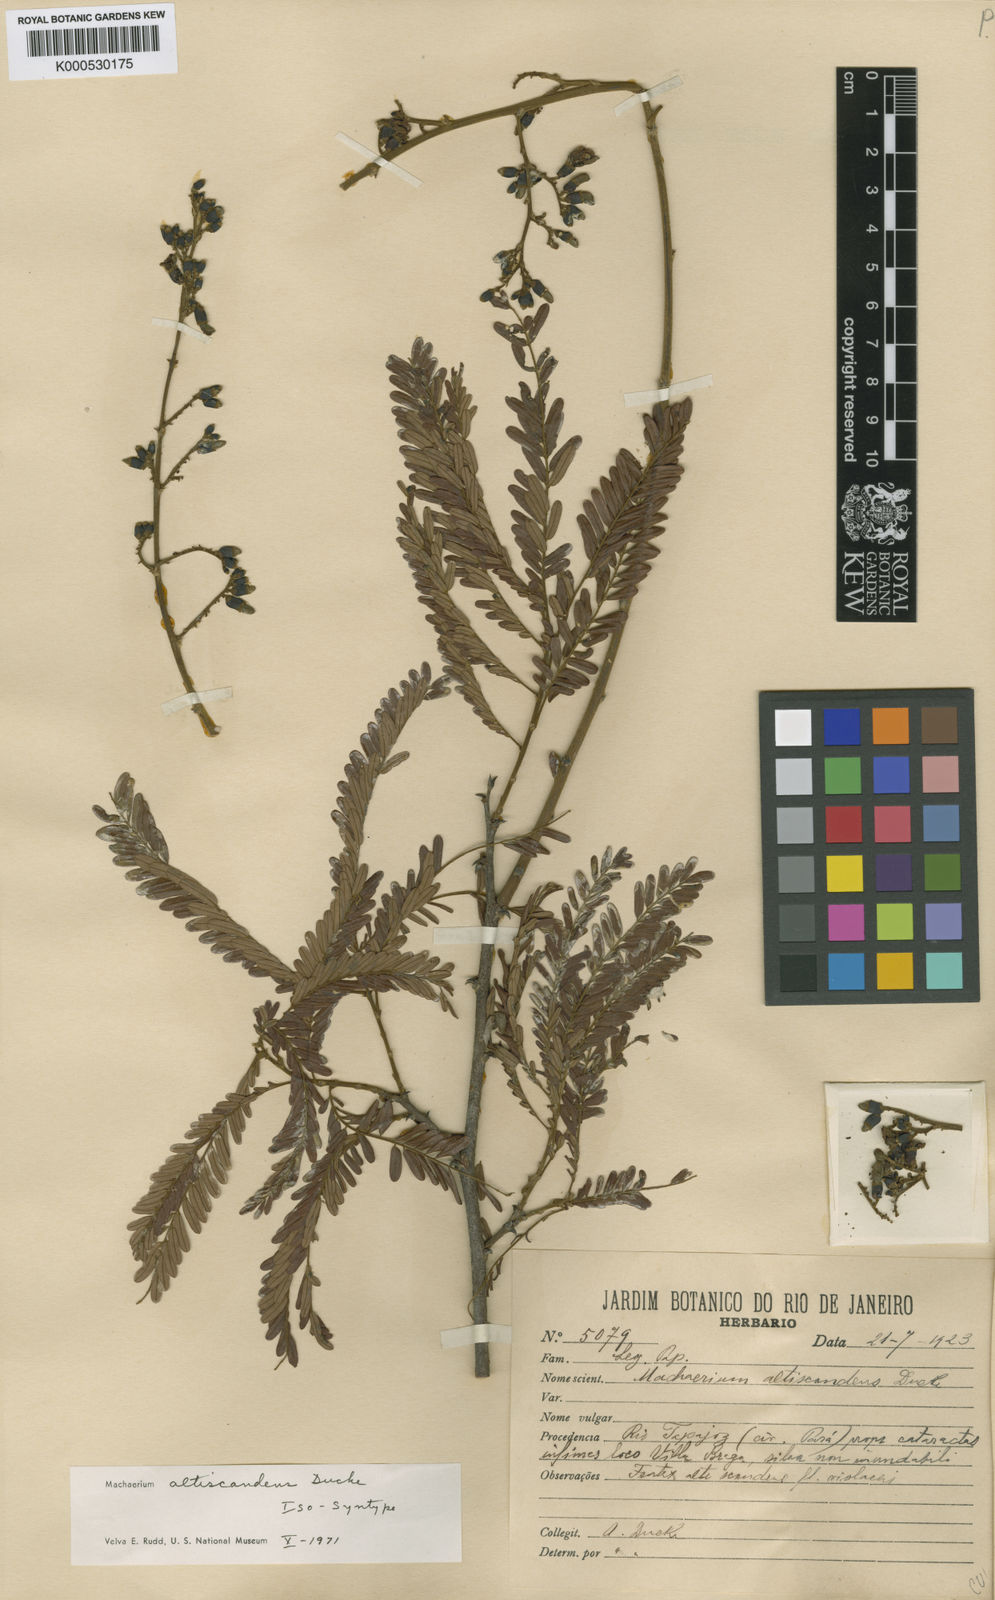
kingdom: Plantae
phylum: Tracheophyta
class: Magnoliopsida
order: Fabales
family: Fabaceae
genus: Machaerium
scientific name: Machaerium isadelphum
